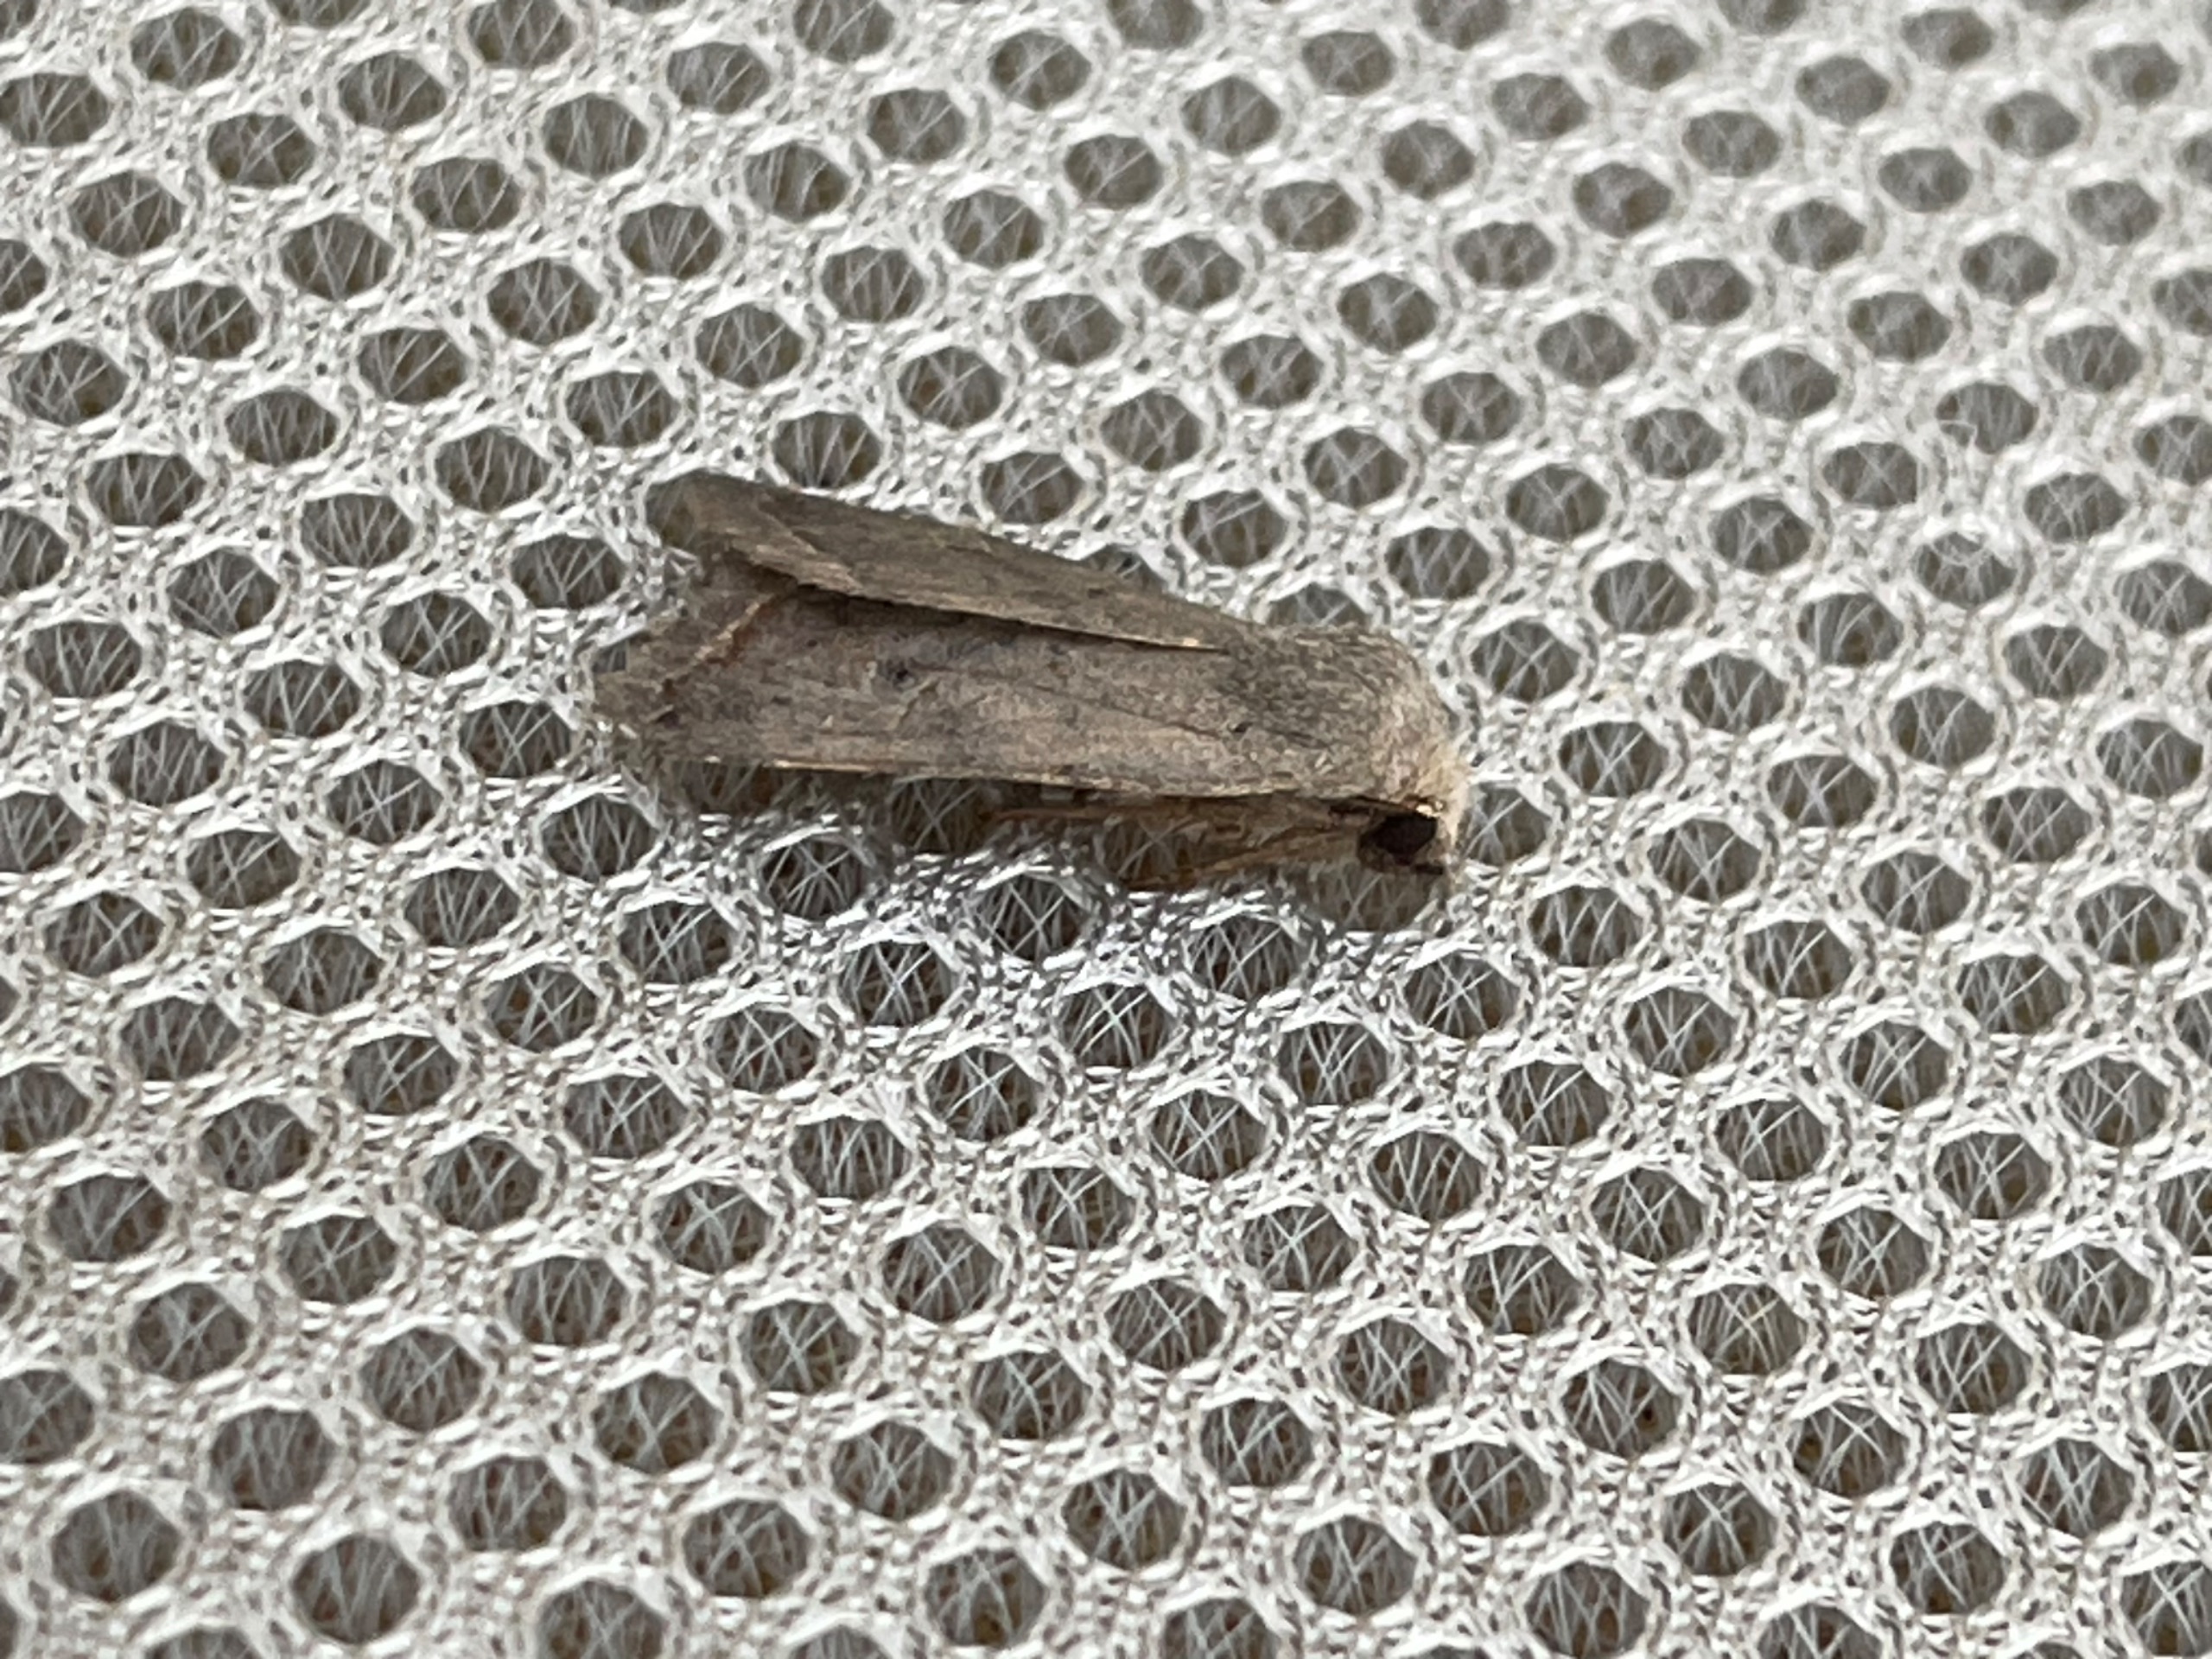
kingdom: Animalia
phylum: Arthropoda
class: Insecta
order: Lepidoptera
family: Noctuidae
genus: Agrochola
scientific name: Agrochola Leptologia lota
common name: Pile-jordfarveugle
